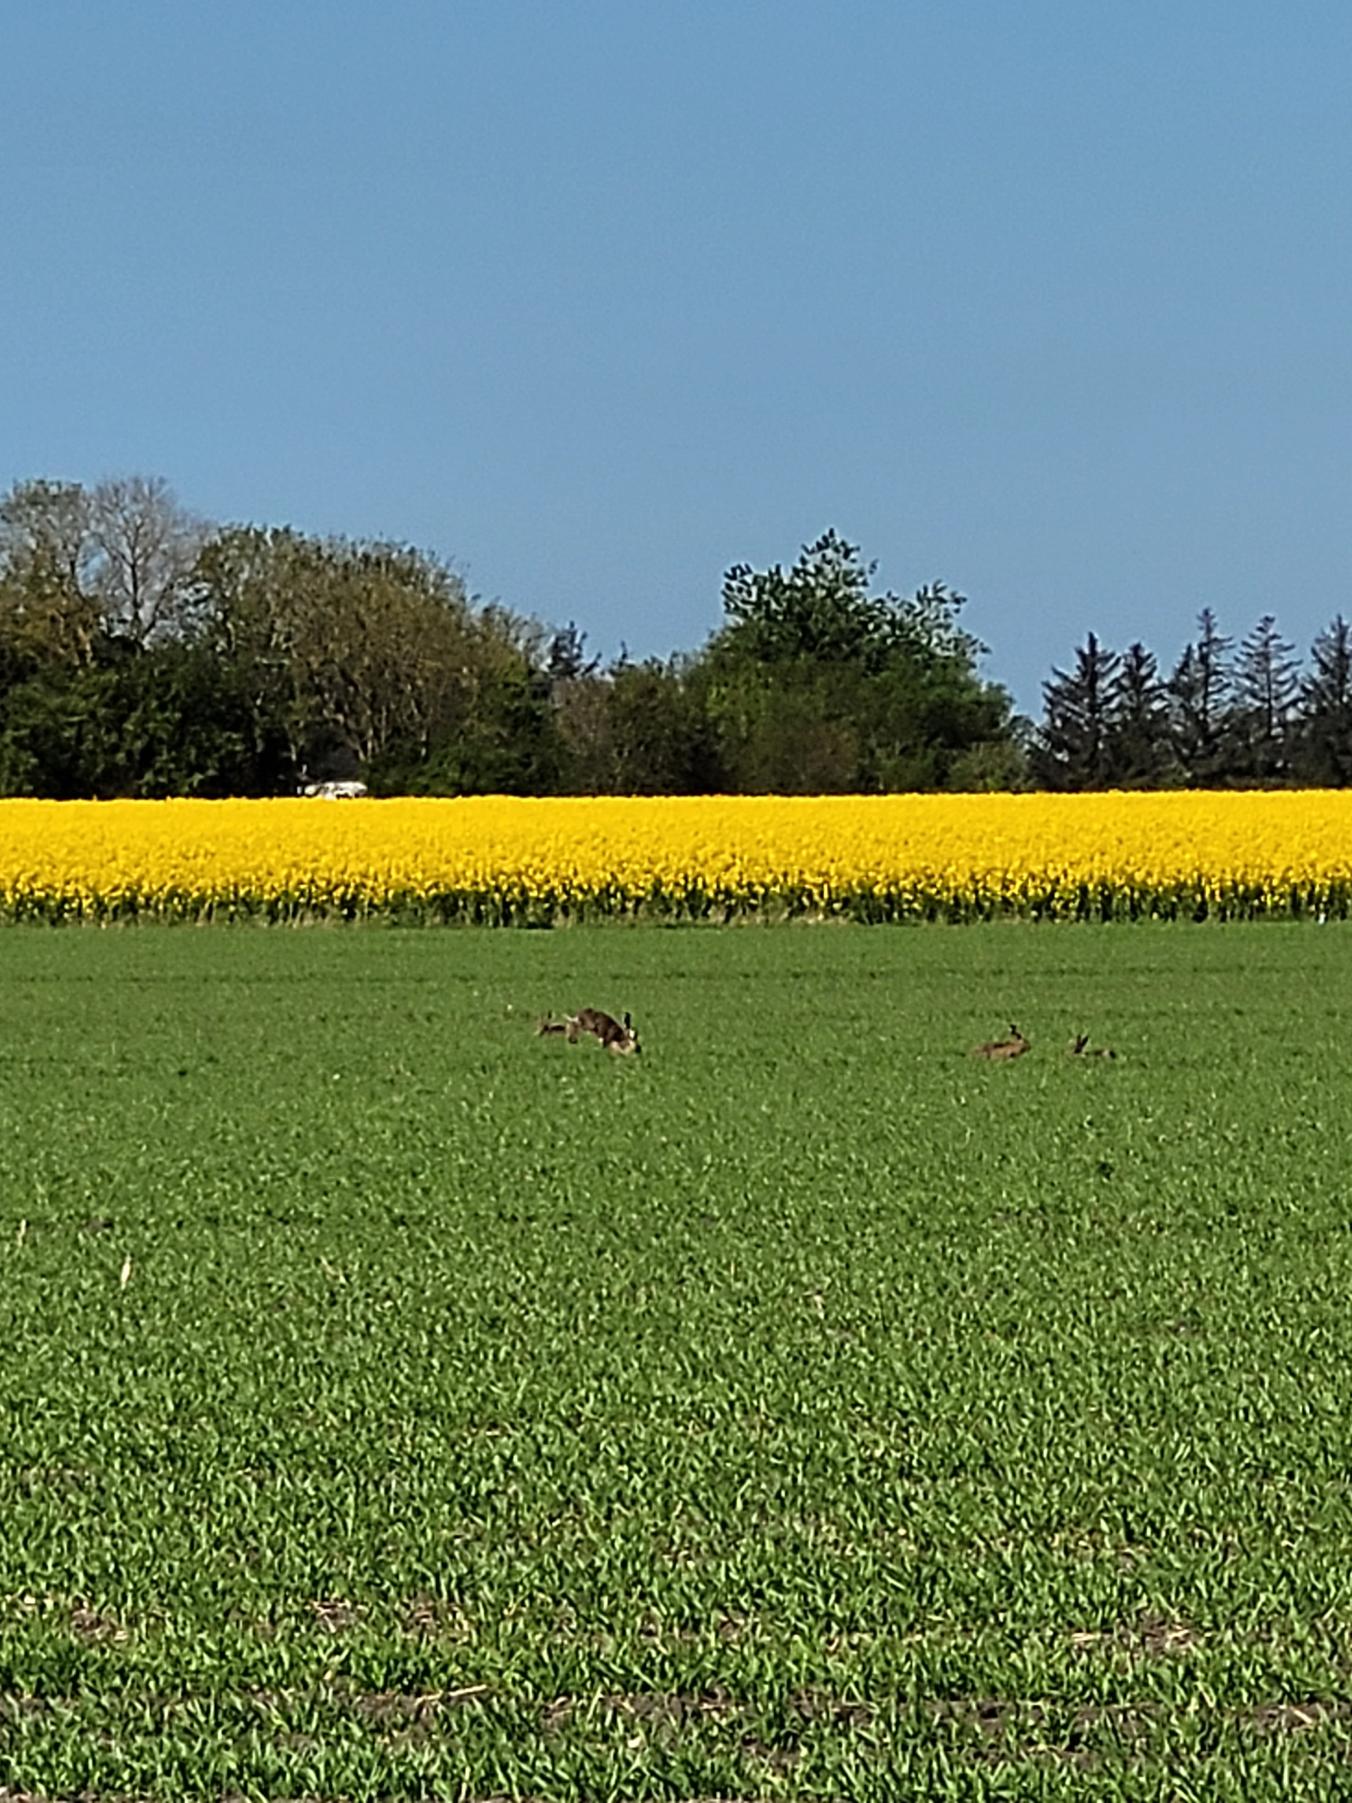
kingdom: Animalia
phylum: Chordata
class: Mammalia
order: Lagomorpha
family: Leporidae
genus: Lepus
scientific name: Lepus europaeus
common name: Hare
